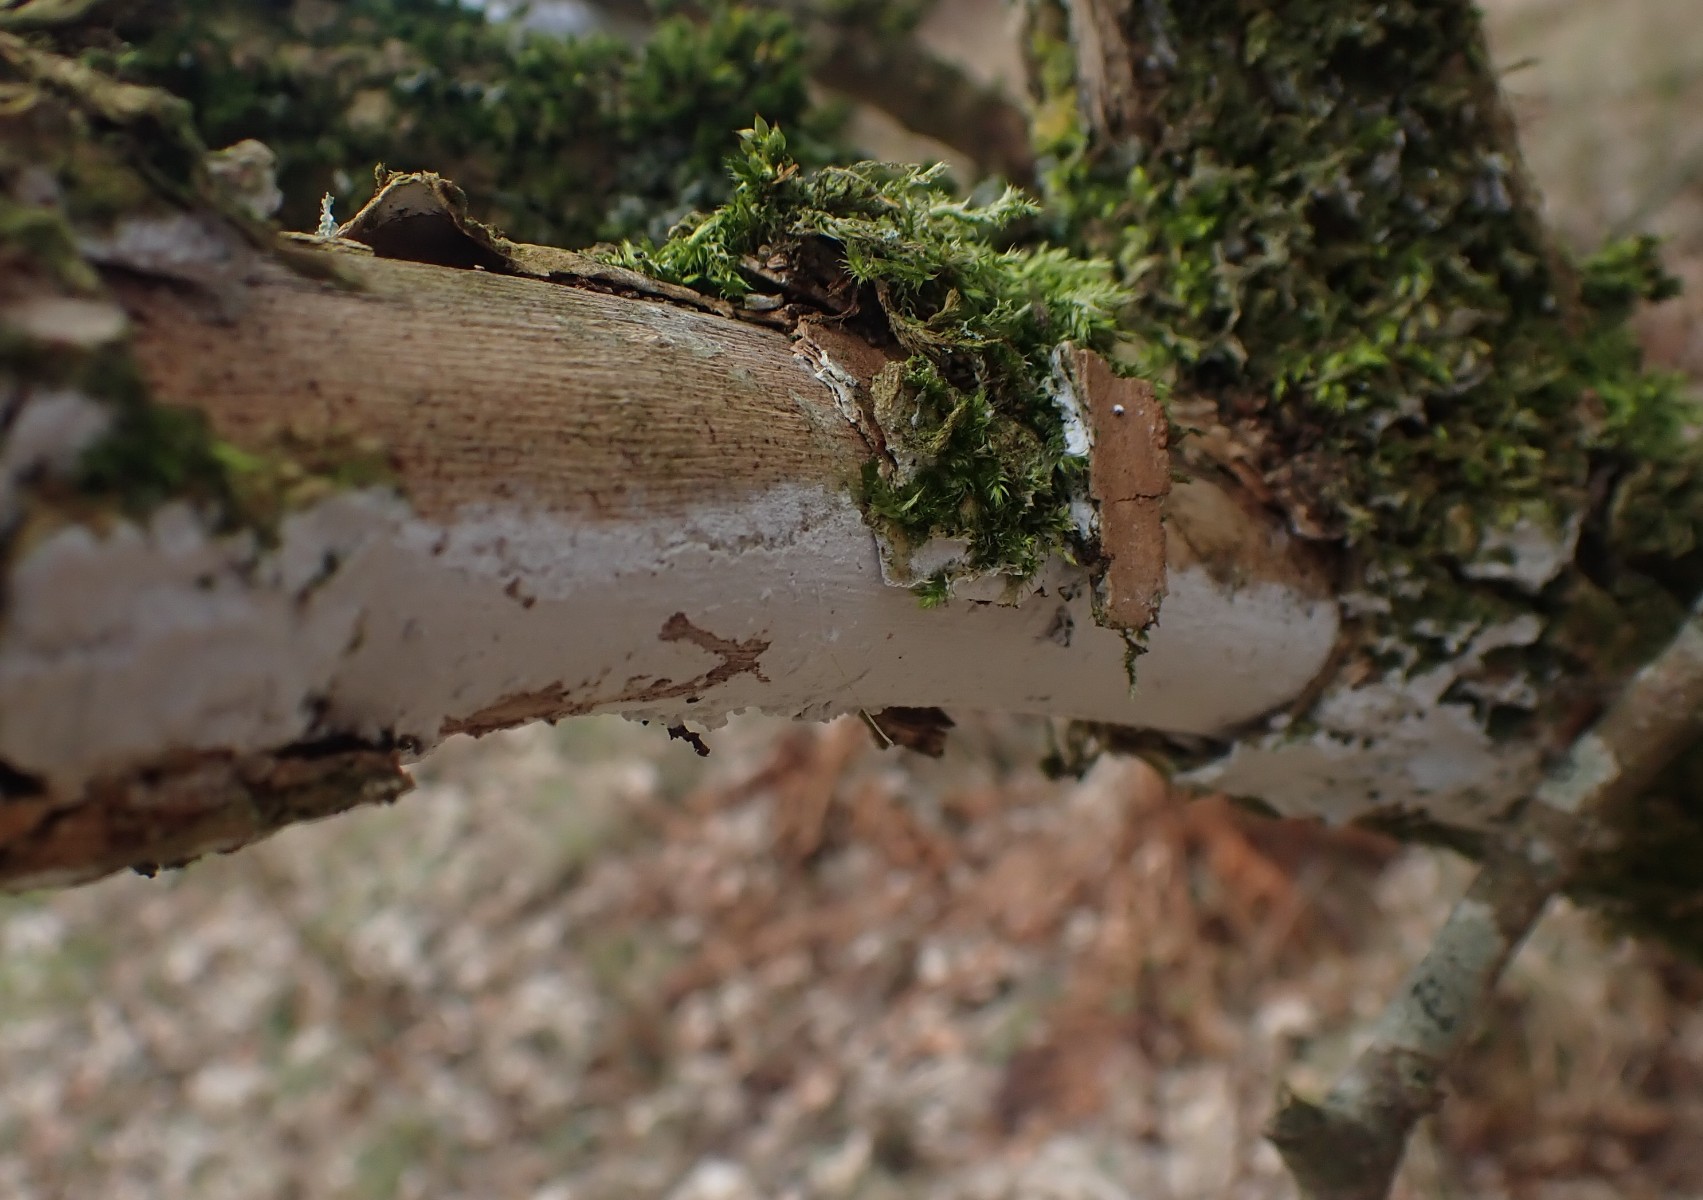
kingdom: Fungi
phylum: Basidiomycota
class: Agaricomycetes
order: Corticiales
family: Corticiaceae
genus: Lyomyces
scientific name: Lyomyces sambuci
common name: almindelig hyldehinde
